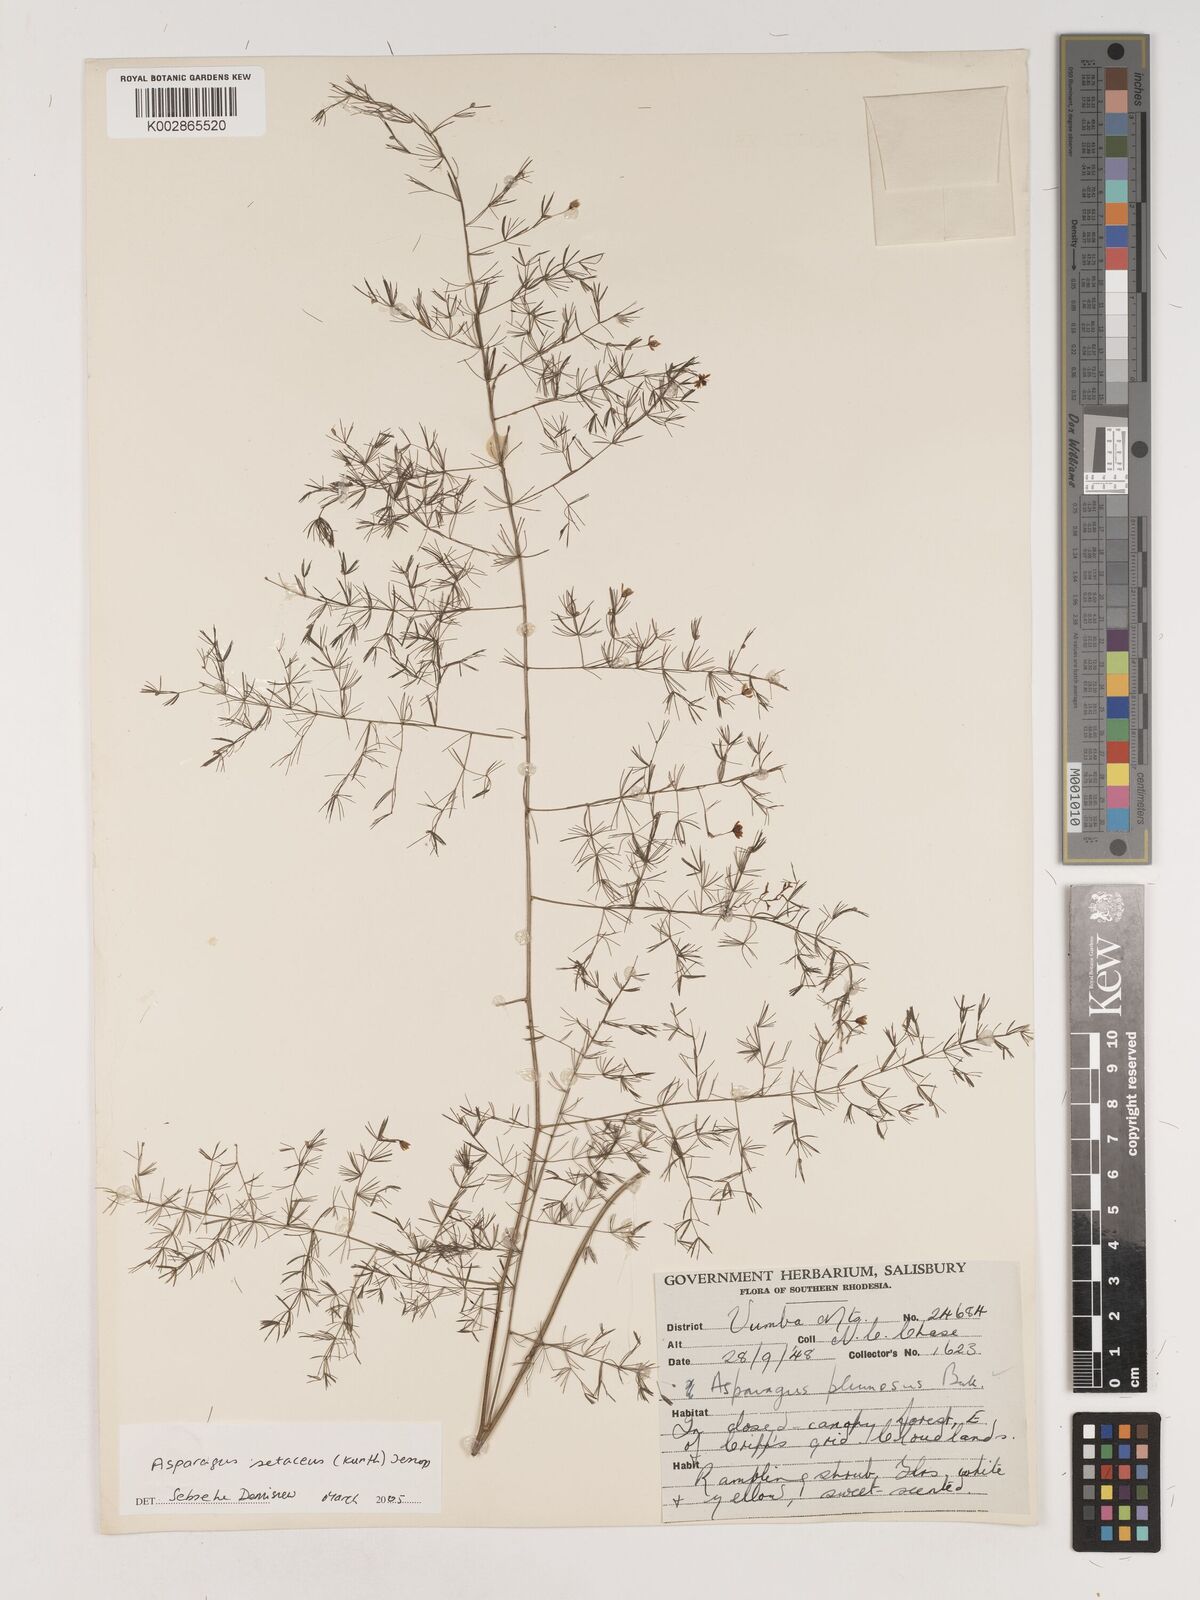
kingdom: Plantae
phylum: Tracheophyta
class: Liliopsida
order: Asparagales
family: Asparagaceae
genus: Asparagus
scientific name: Asparagus setaceus
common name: Common asparagus fern
